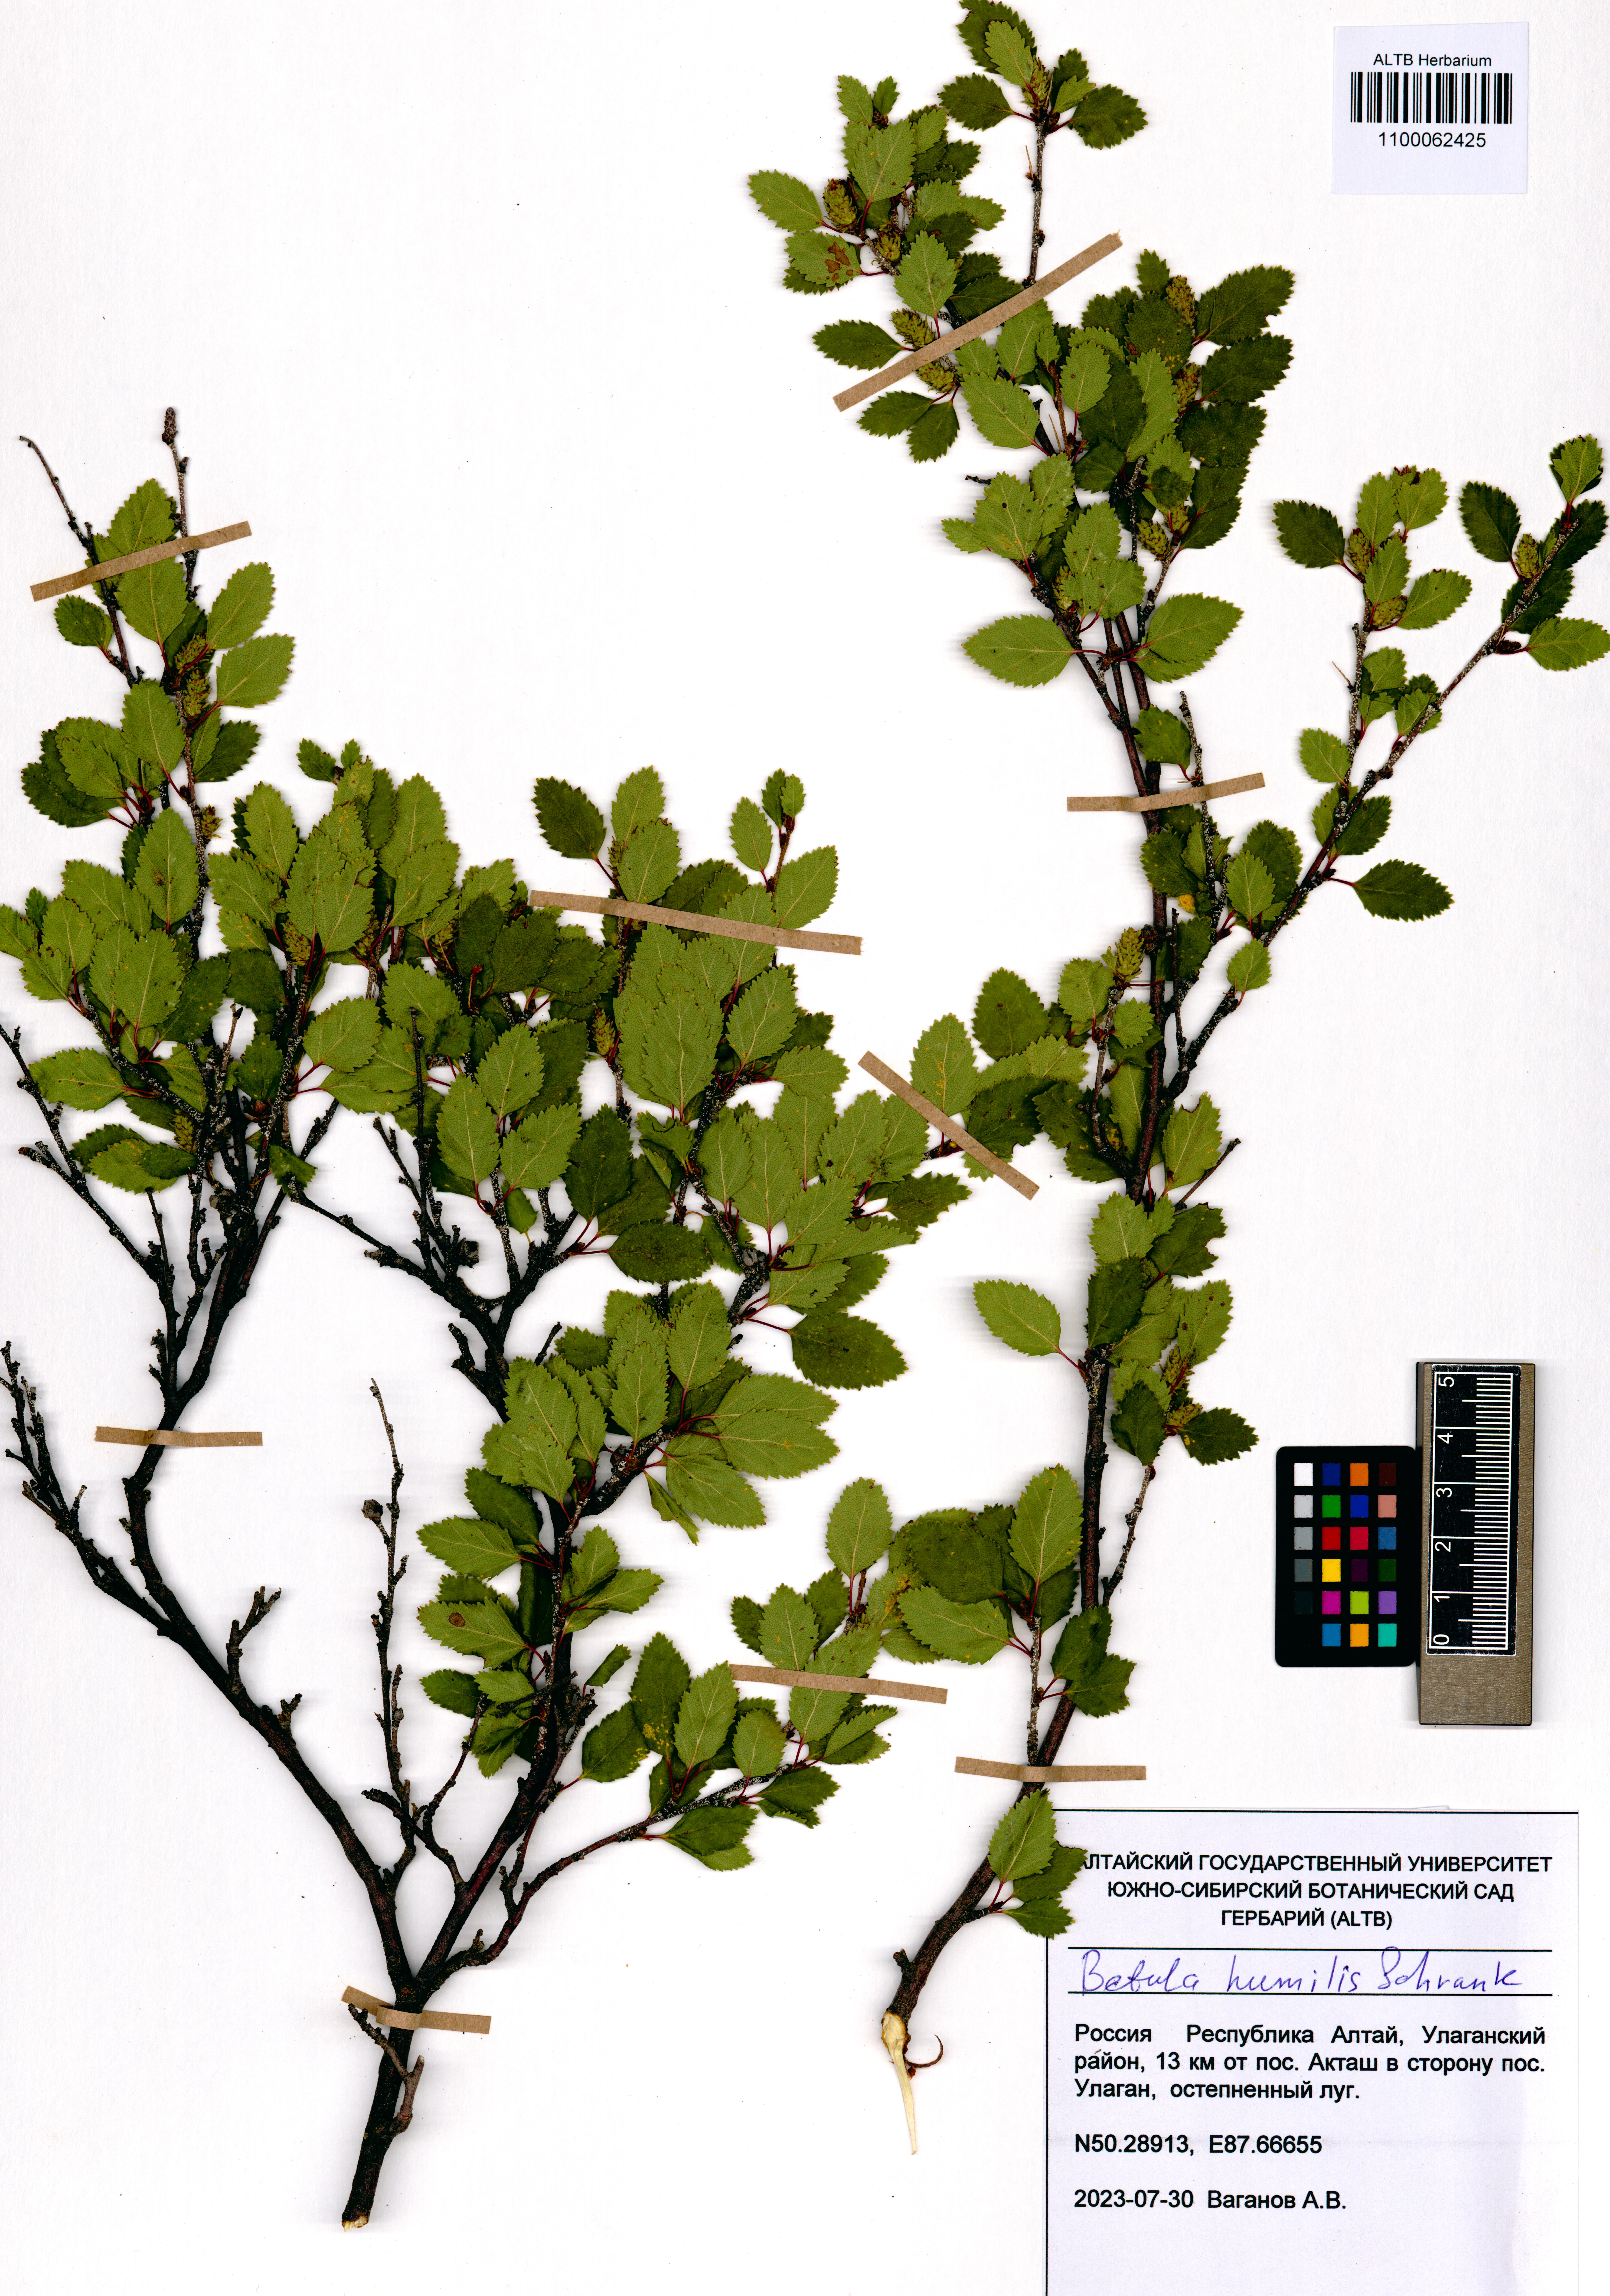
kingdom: Plantae
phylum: Tracheophyta
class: Magnoliopsida
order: Fagales
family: Betulaceae
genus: Betula
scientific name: Betula humilis
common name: Shrubby birch
